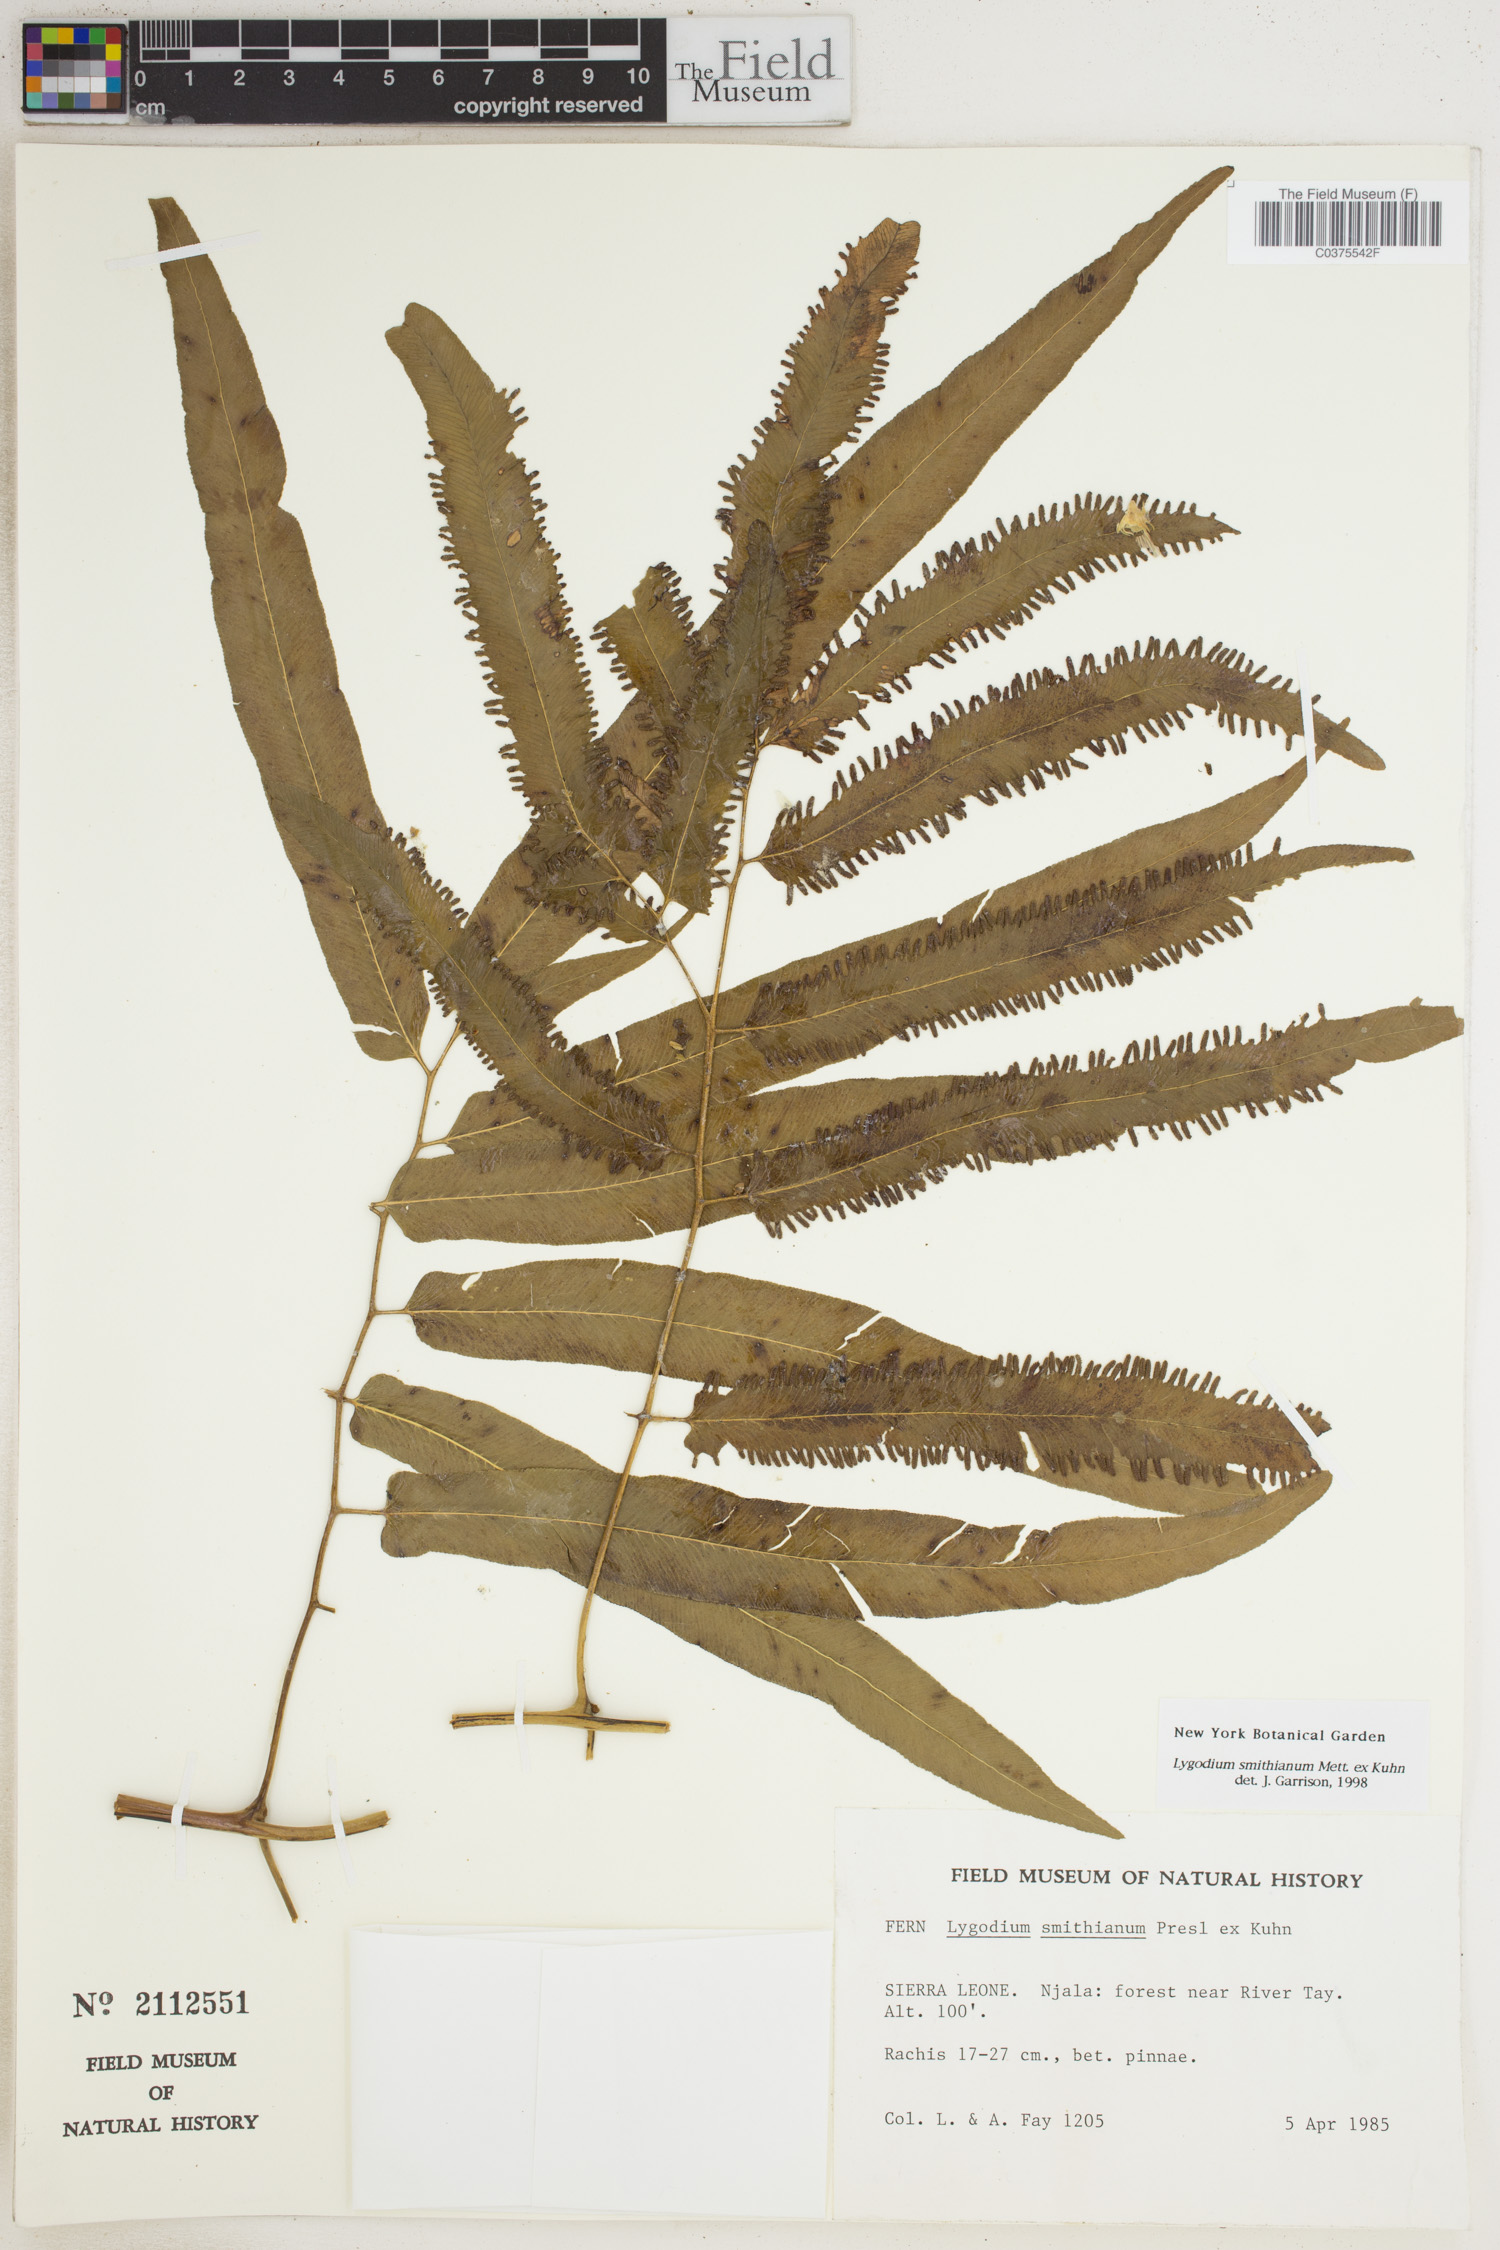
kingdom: Plantae
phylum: Tracheophyta
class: Polypodiopsida
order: Schizaeales
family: Lygodiaceae
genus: Lygodium
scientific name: Lygodium smithianum
